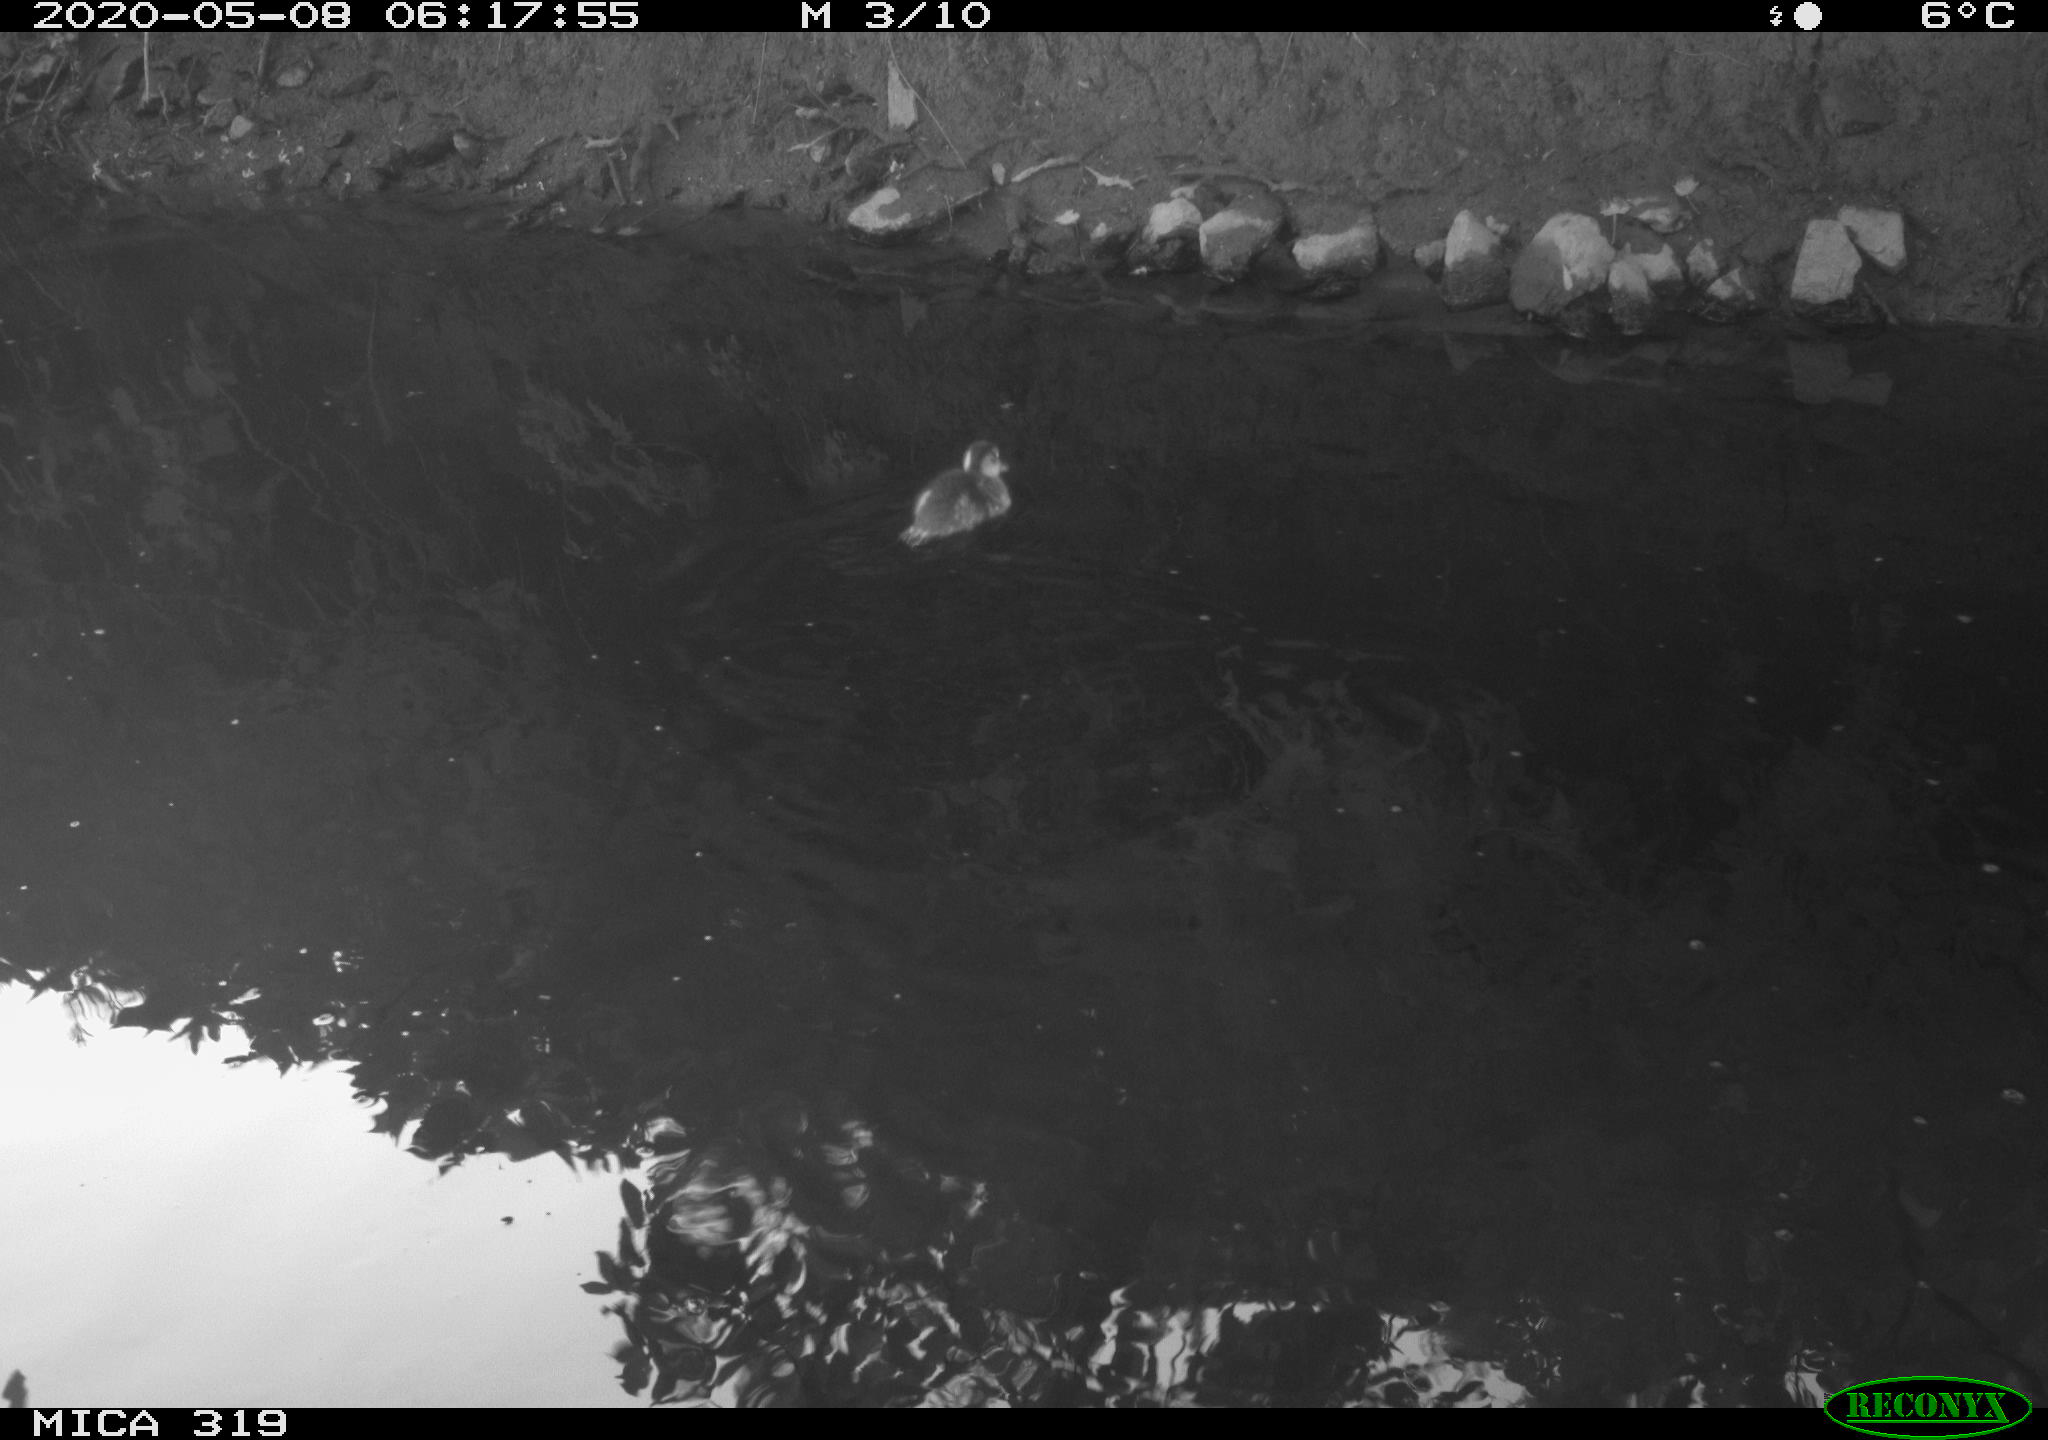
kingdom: Animalia
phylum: Chordata
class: Aves
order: Anseriformes
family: Anatidae
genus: Anas
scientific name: Anas platyrhynchos
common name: Mallard
